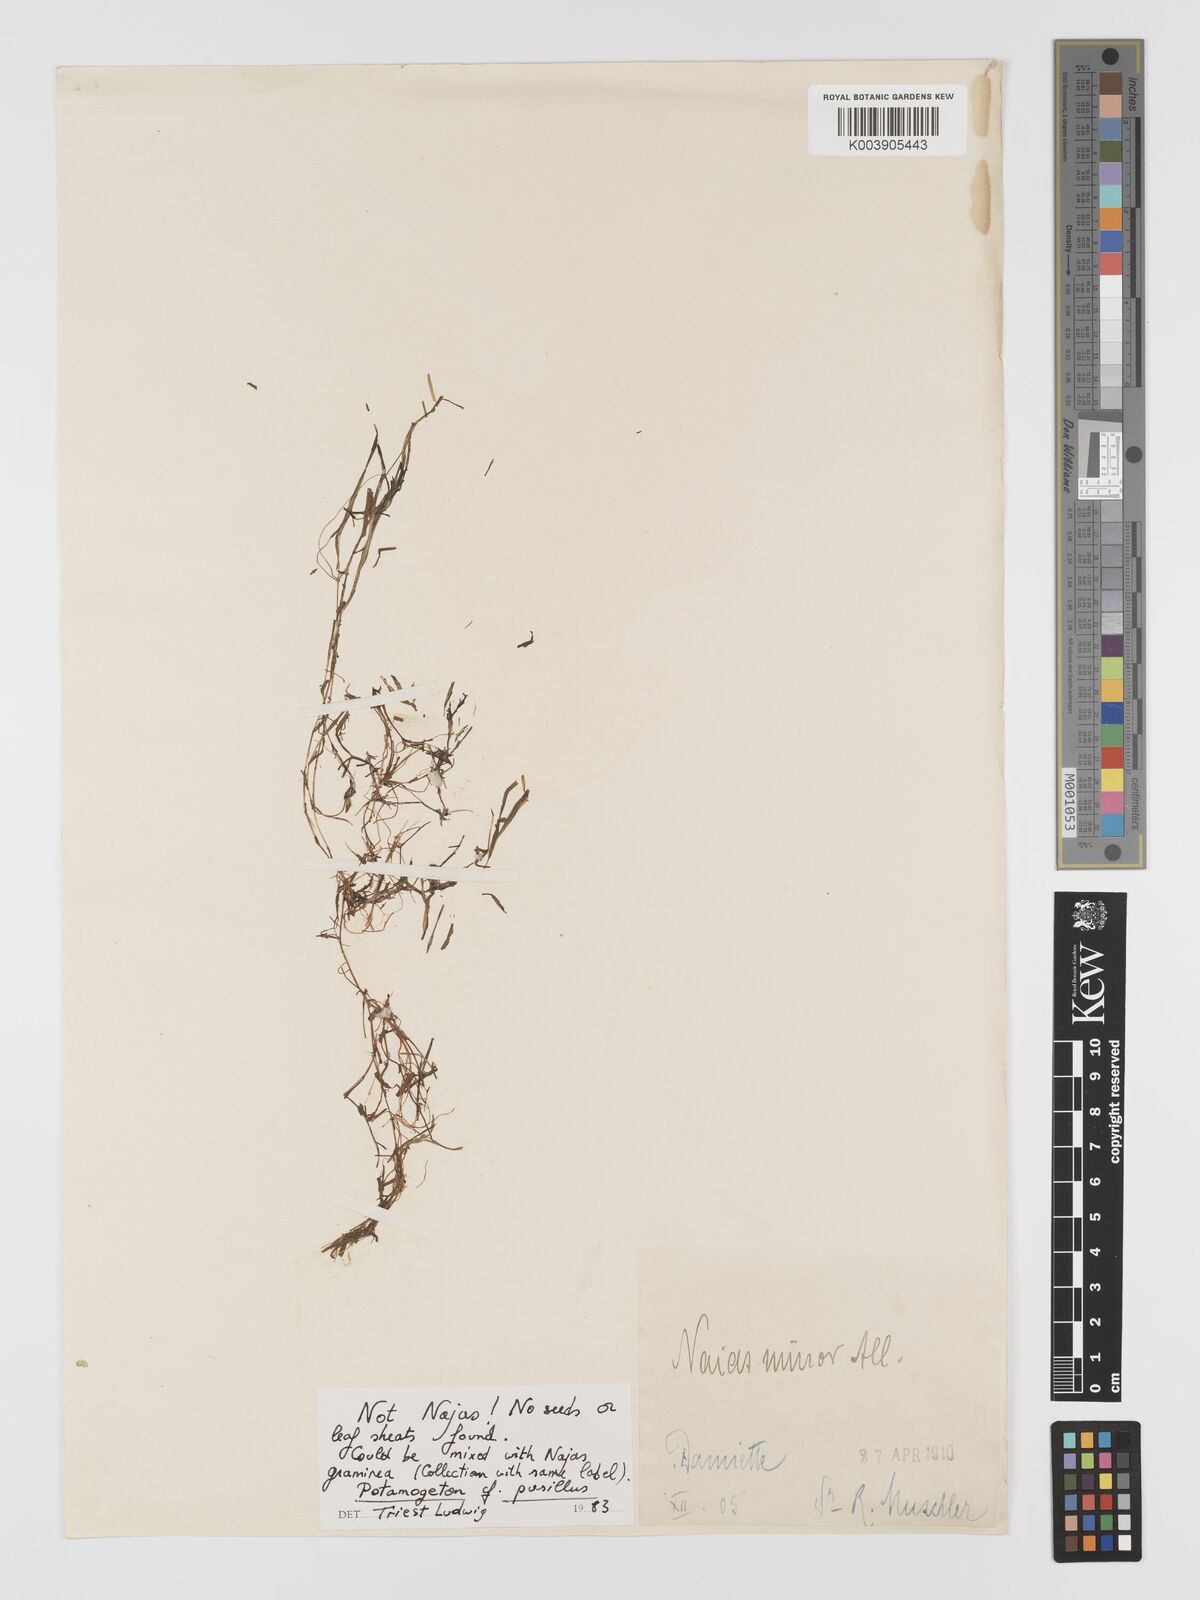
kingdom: Plantae
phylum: Tracheophyta
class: Liliopsida
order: Alismatales
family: Potamogetonaceae
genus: Potamogeton
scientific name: Potamogeton pusillus
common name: Lesser pondweed
